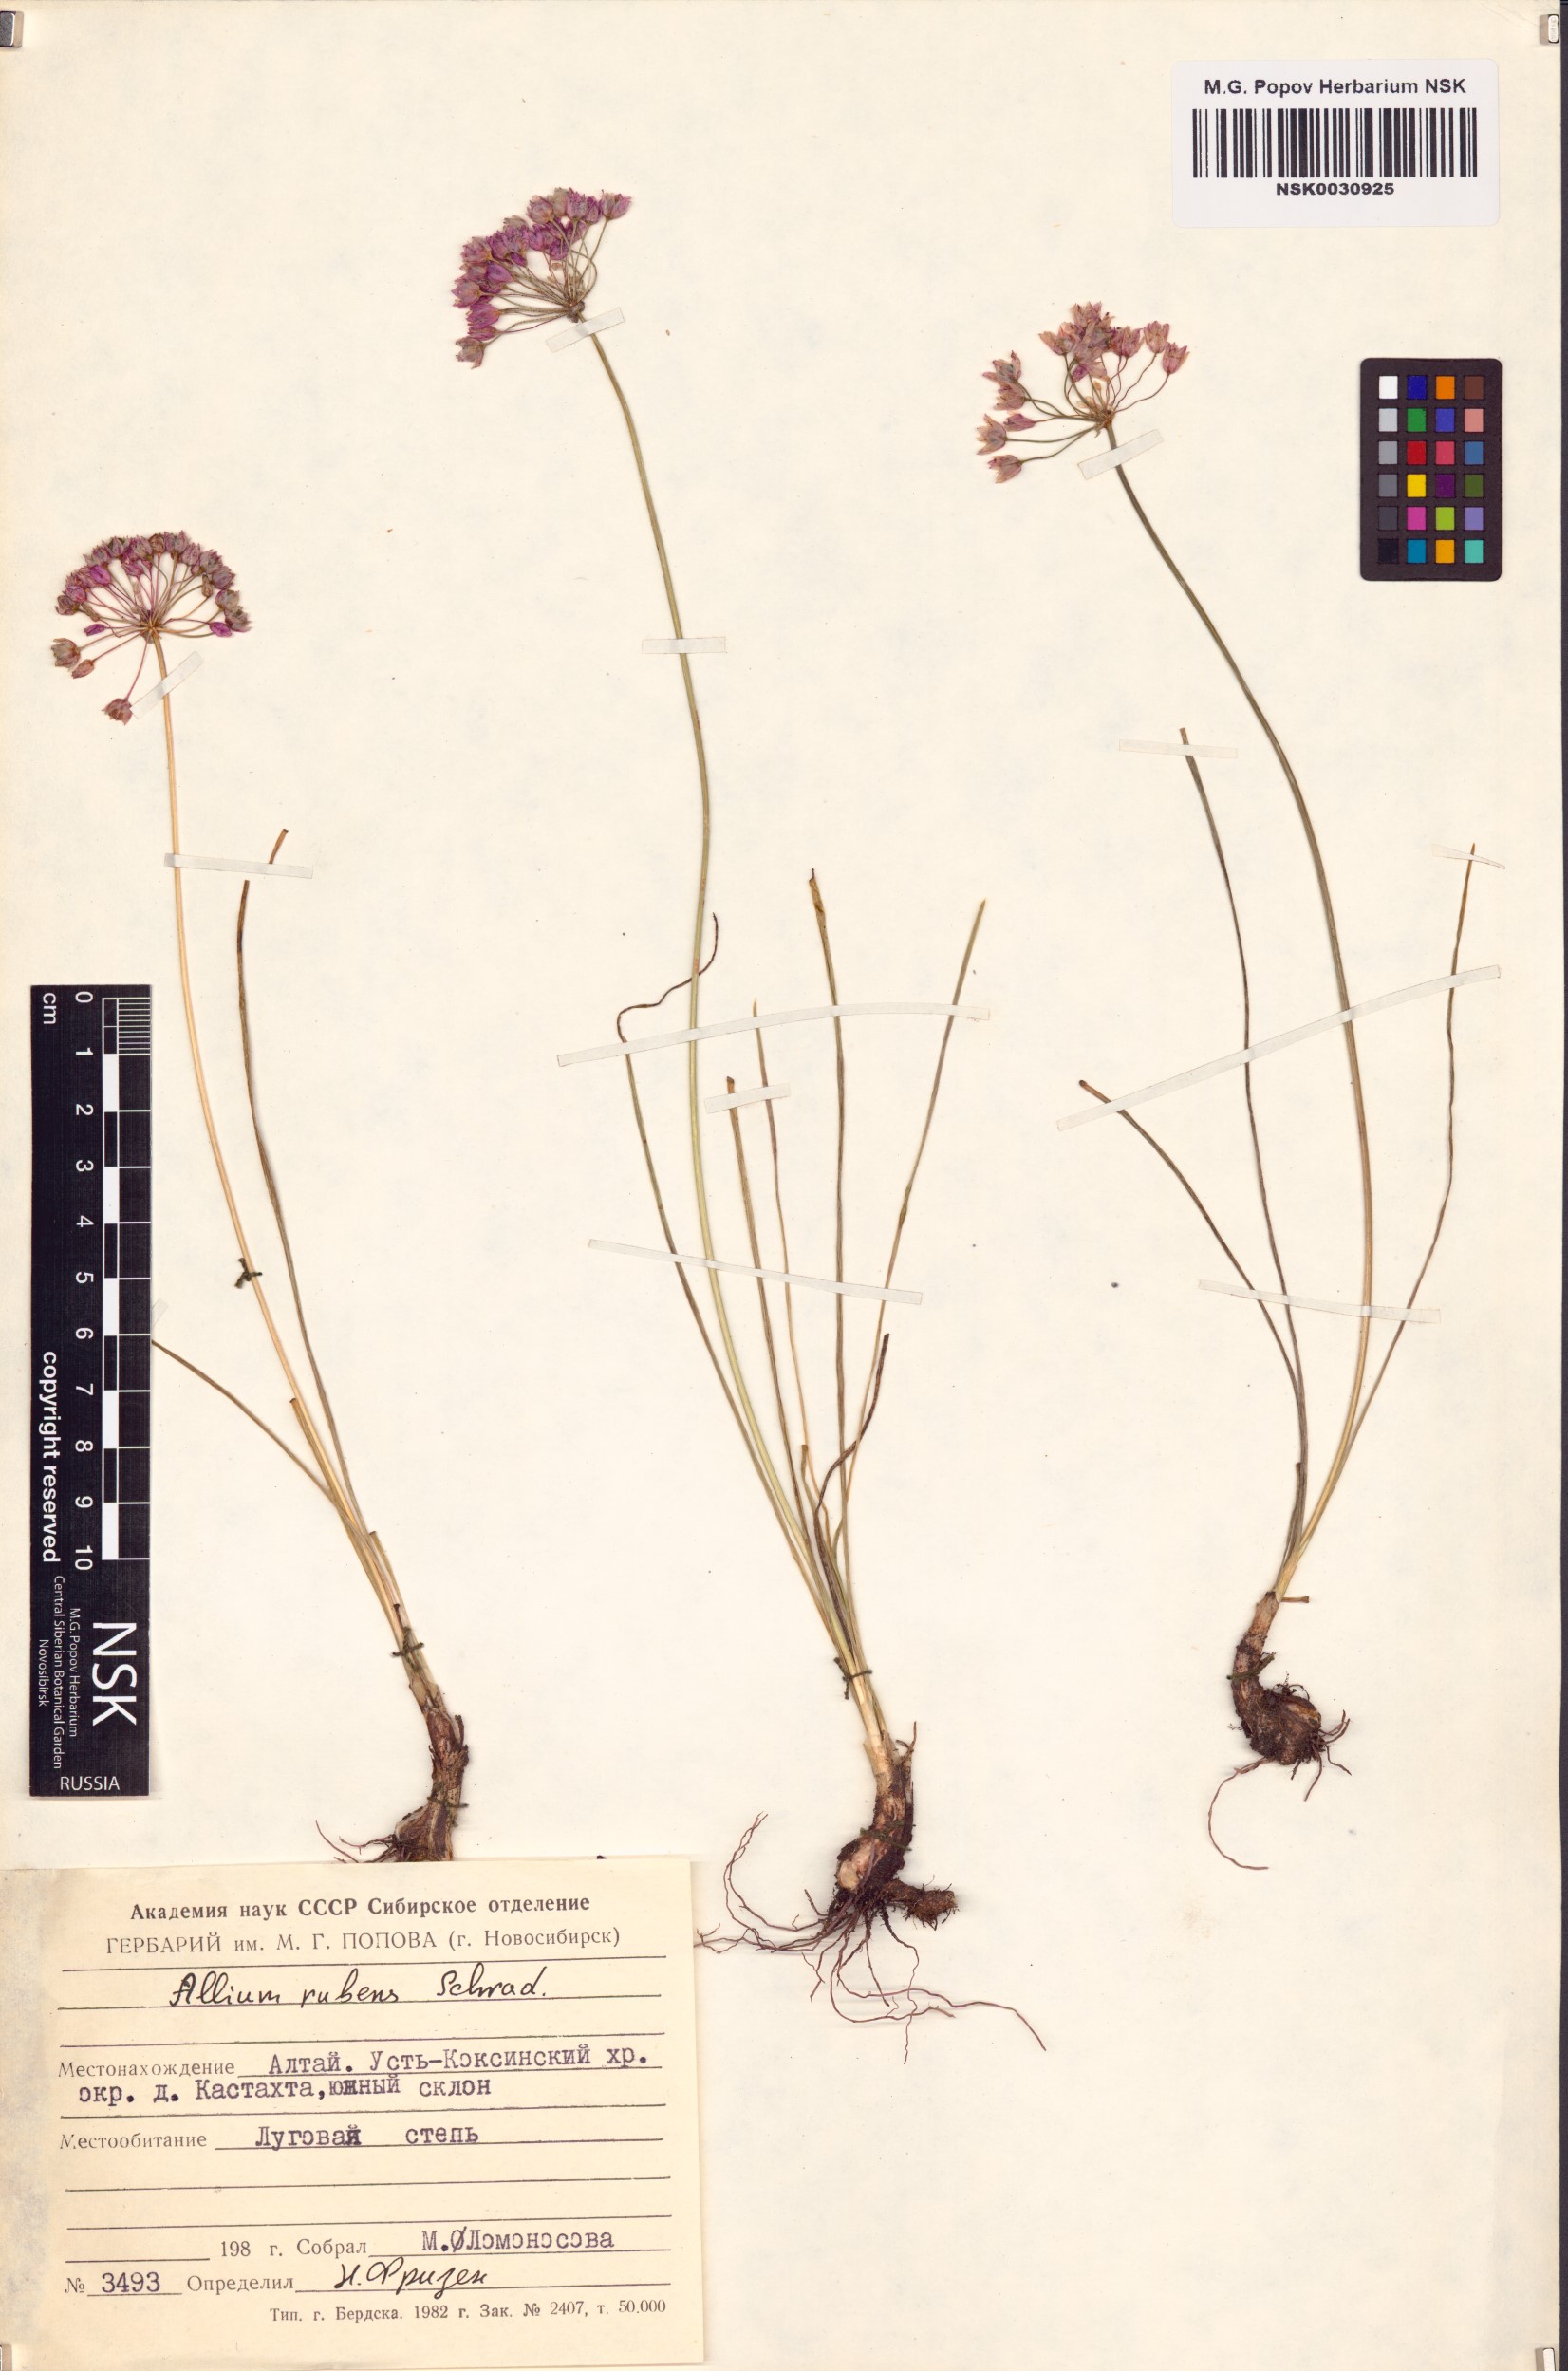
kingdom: Plantae
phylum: Tracheophyta
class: Liliopsida
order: Asparagales
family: Amaryllidaceae
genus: Allium
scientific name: Allium rubens
